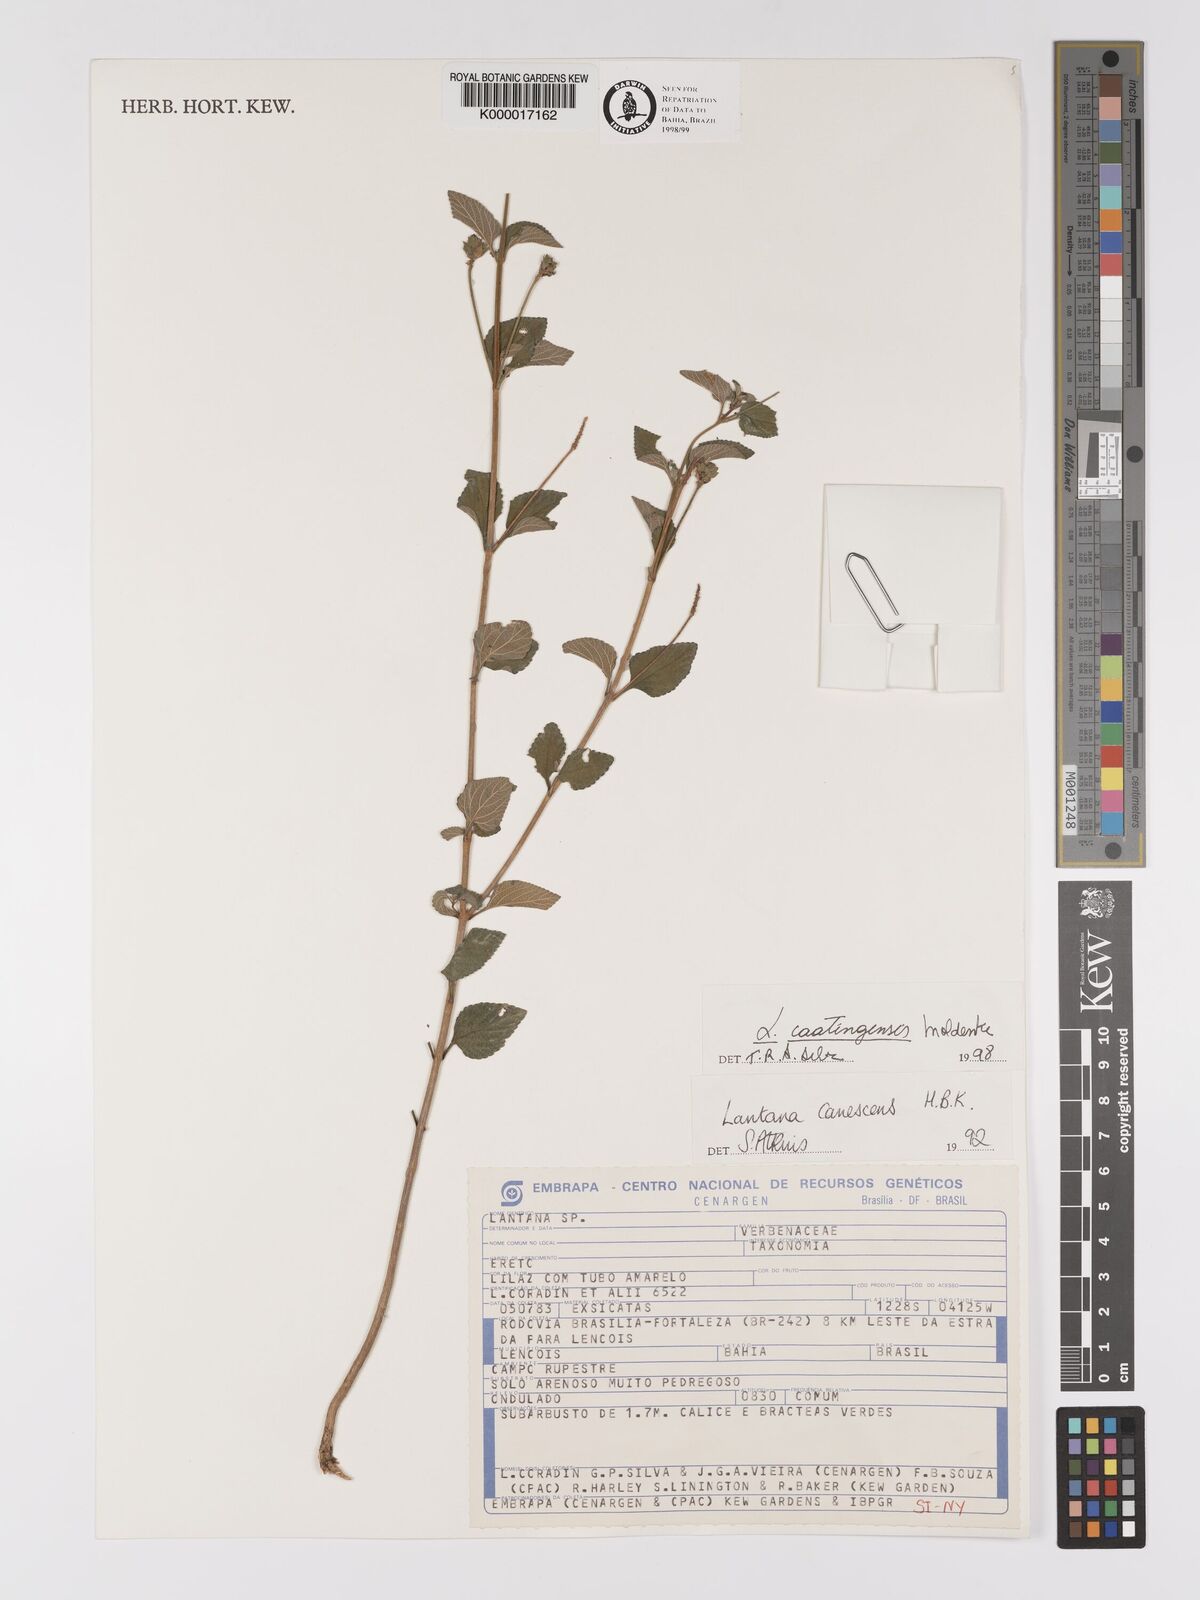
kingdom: Plantae
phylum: Tracheophyta
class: Magnoliopsida
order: Lamiales
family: Verbenaceae
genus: Lantana
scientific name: Lantana caatingensis
